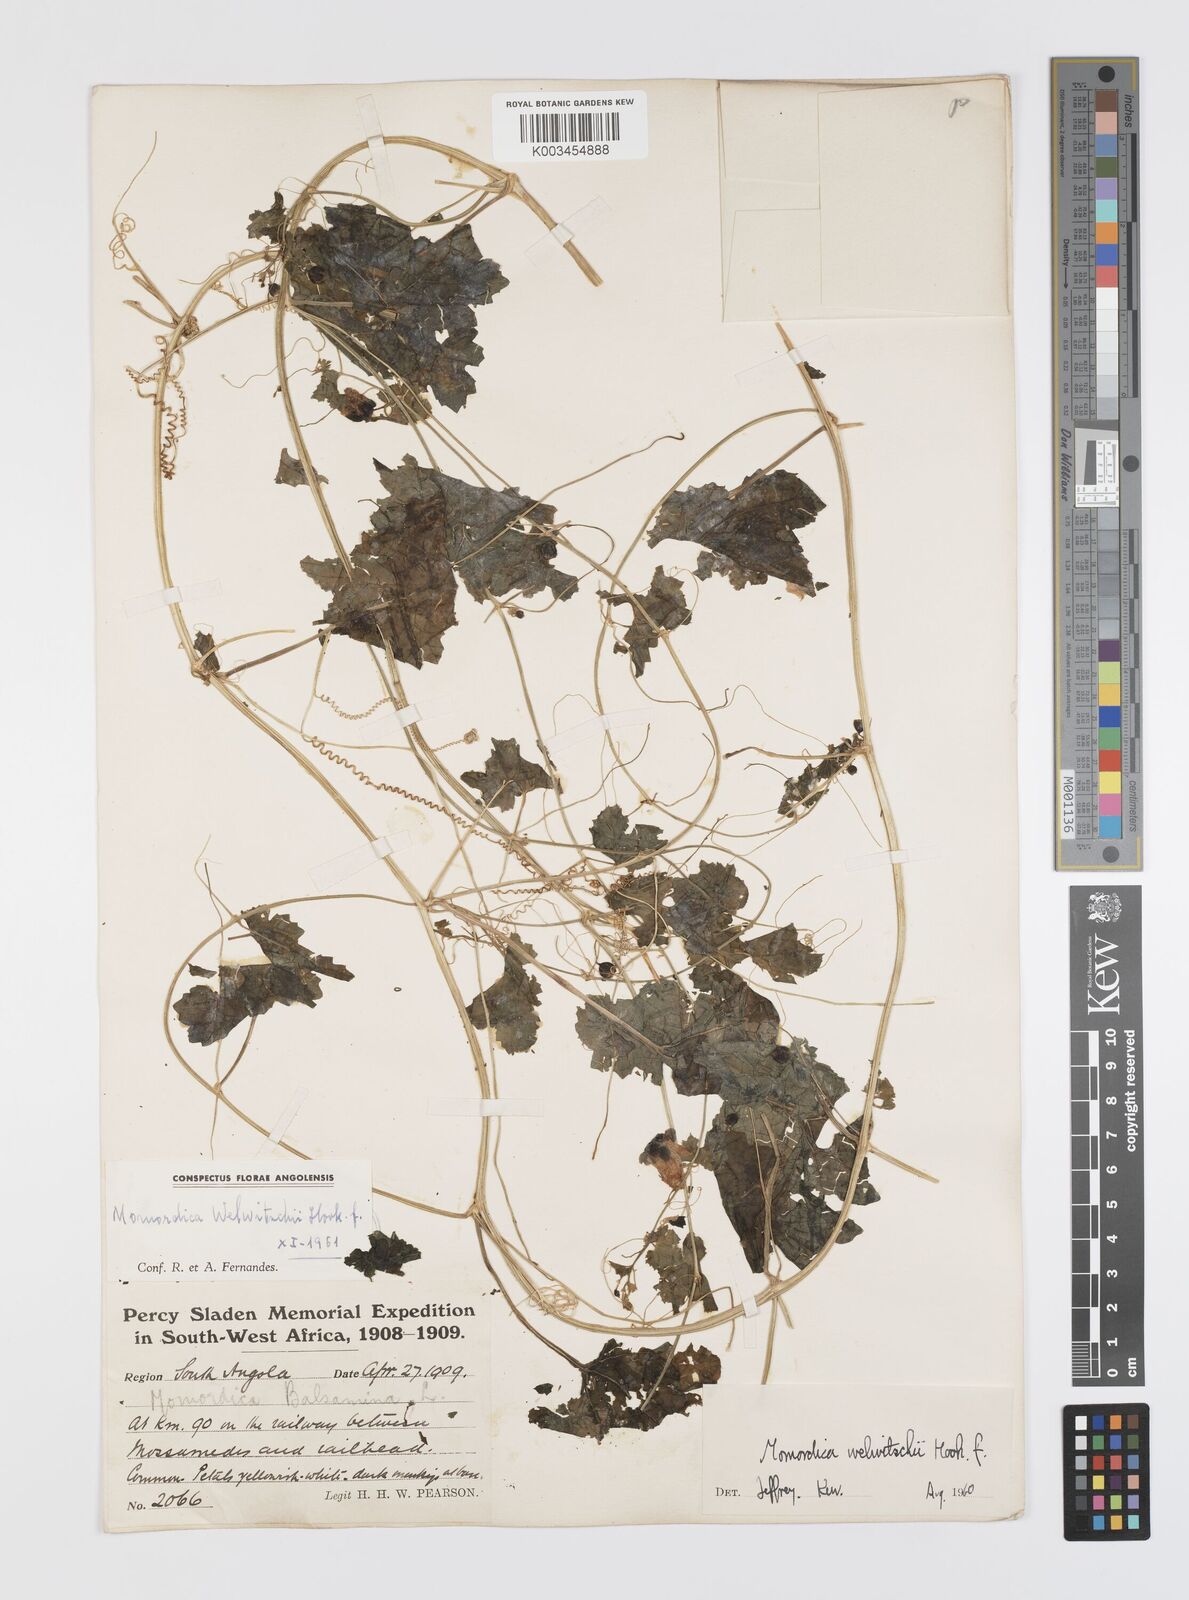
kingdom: Plantae
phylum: Tracheophyta
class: Magnoliopsida
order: Cucurbitales
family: Cucurbitaceae
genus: Momordica
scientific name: Momordica humilis
